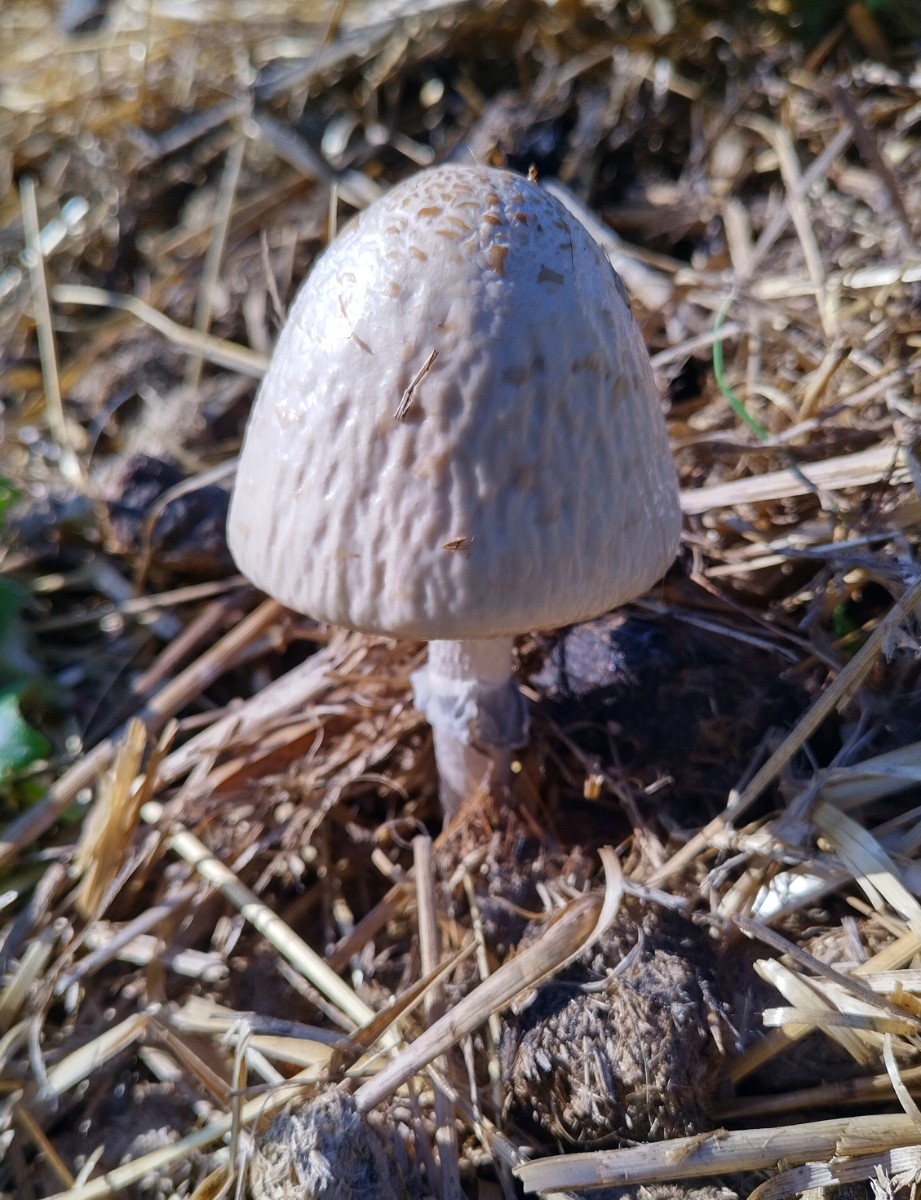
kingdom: Fungi
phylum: Basidiomycota
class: Agaricomycetes
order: Agaricales
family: Bolbitiaceae
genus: Panaeolus
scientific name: Panaeolus semiovatus
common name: ring-glanshat
